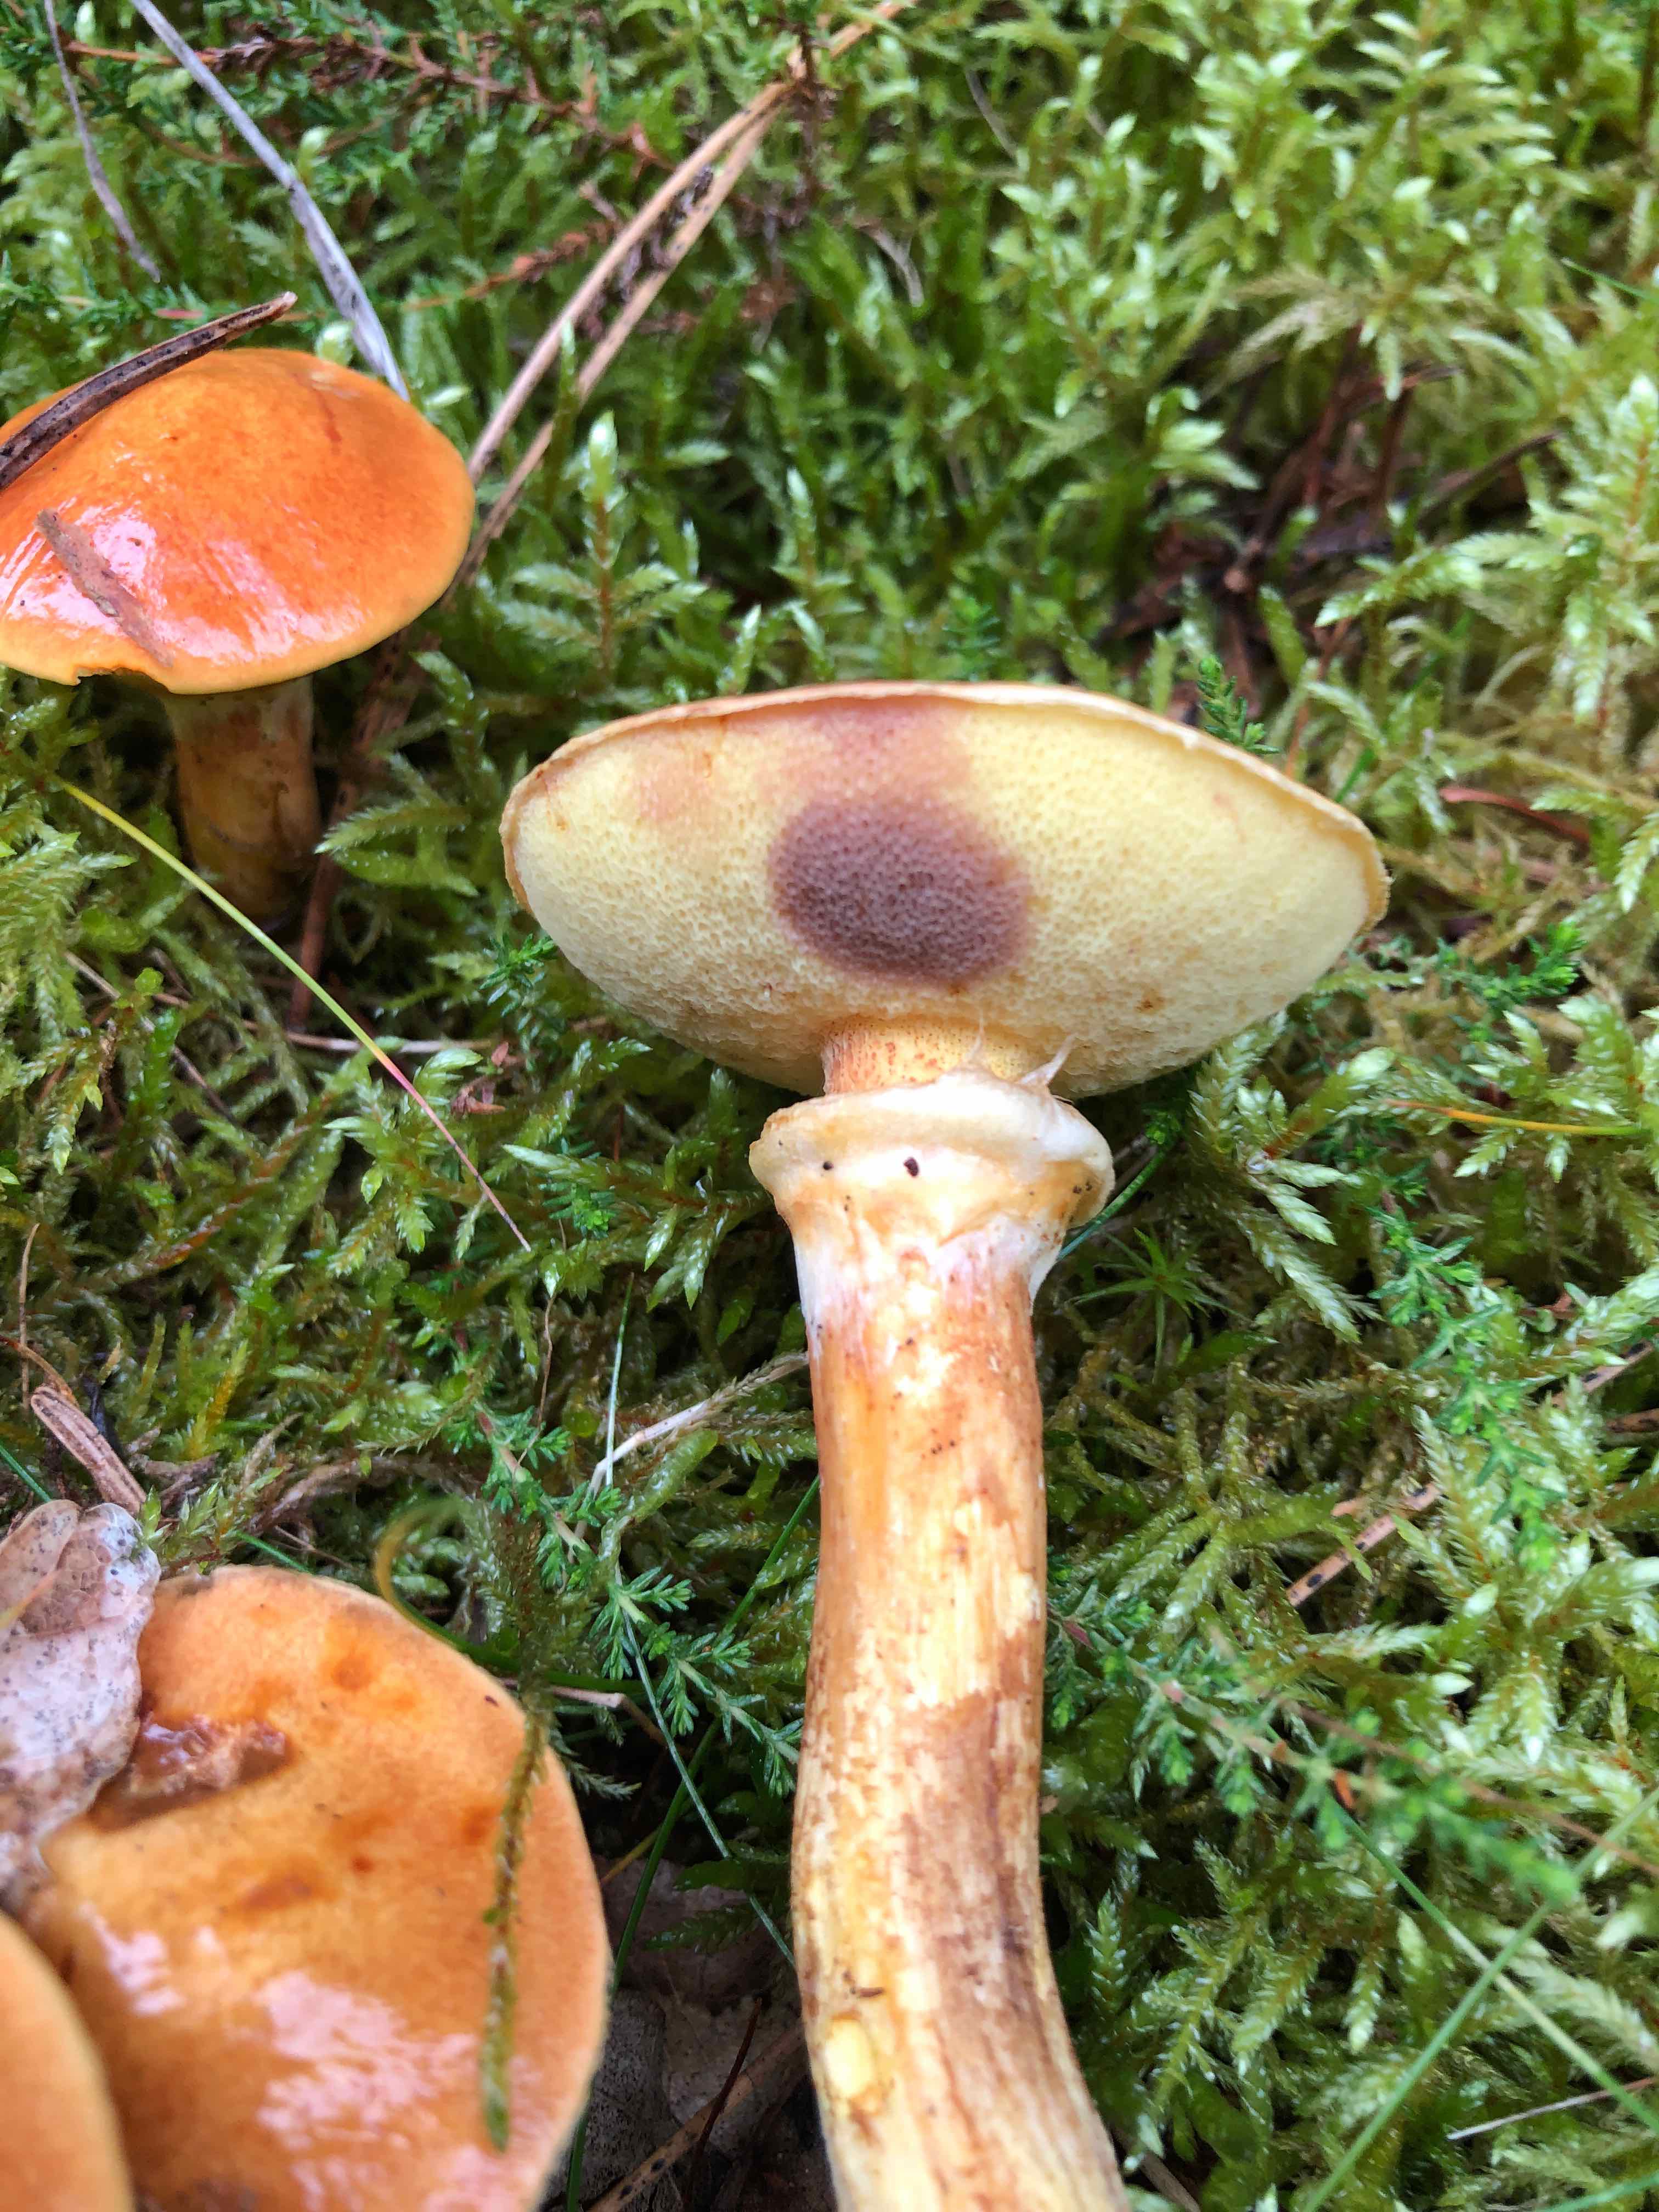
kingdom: Fungi
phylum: Basidiomycota
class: Agaricomycetes
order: Boletales
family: Suillaceae
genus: Suillus
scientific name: Suillus grevillei
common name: lærke-slimrørhat
